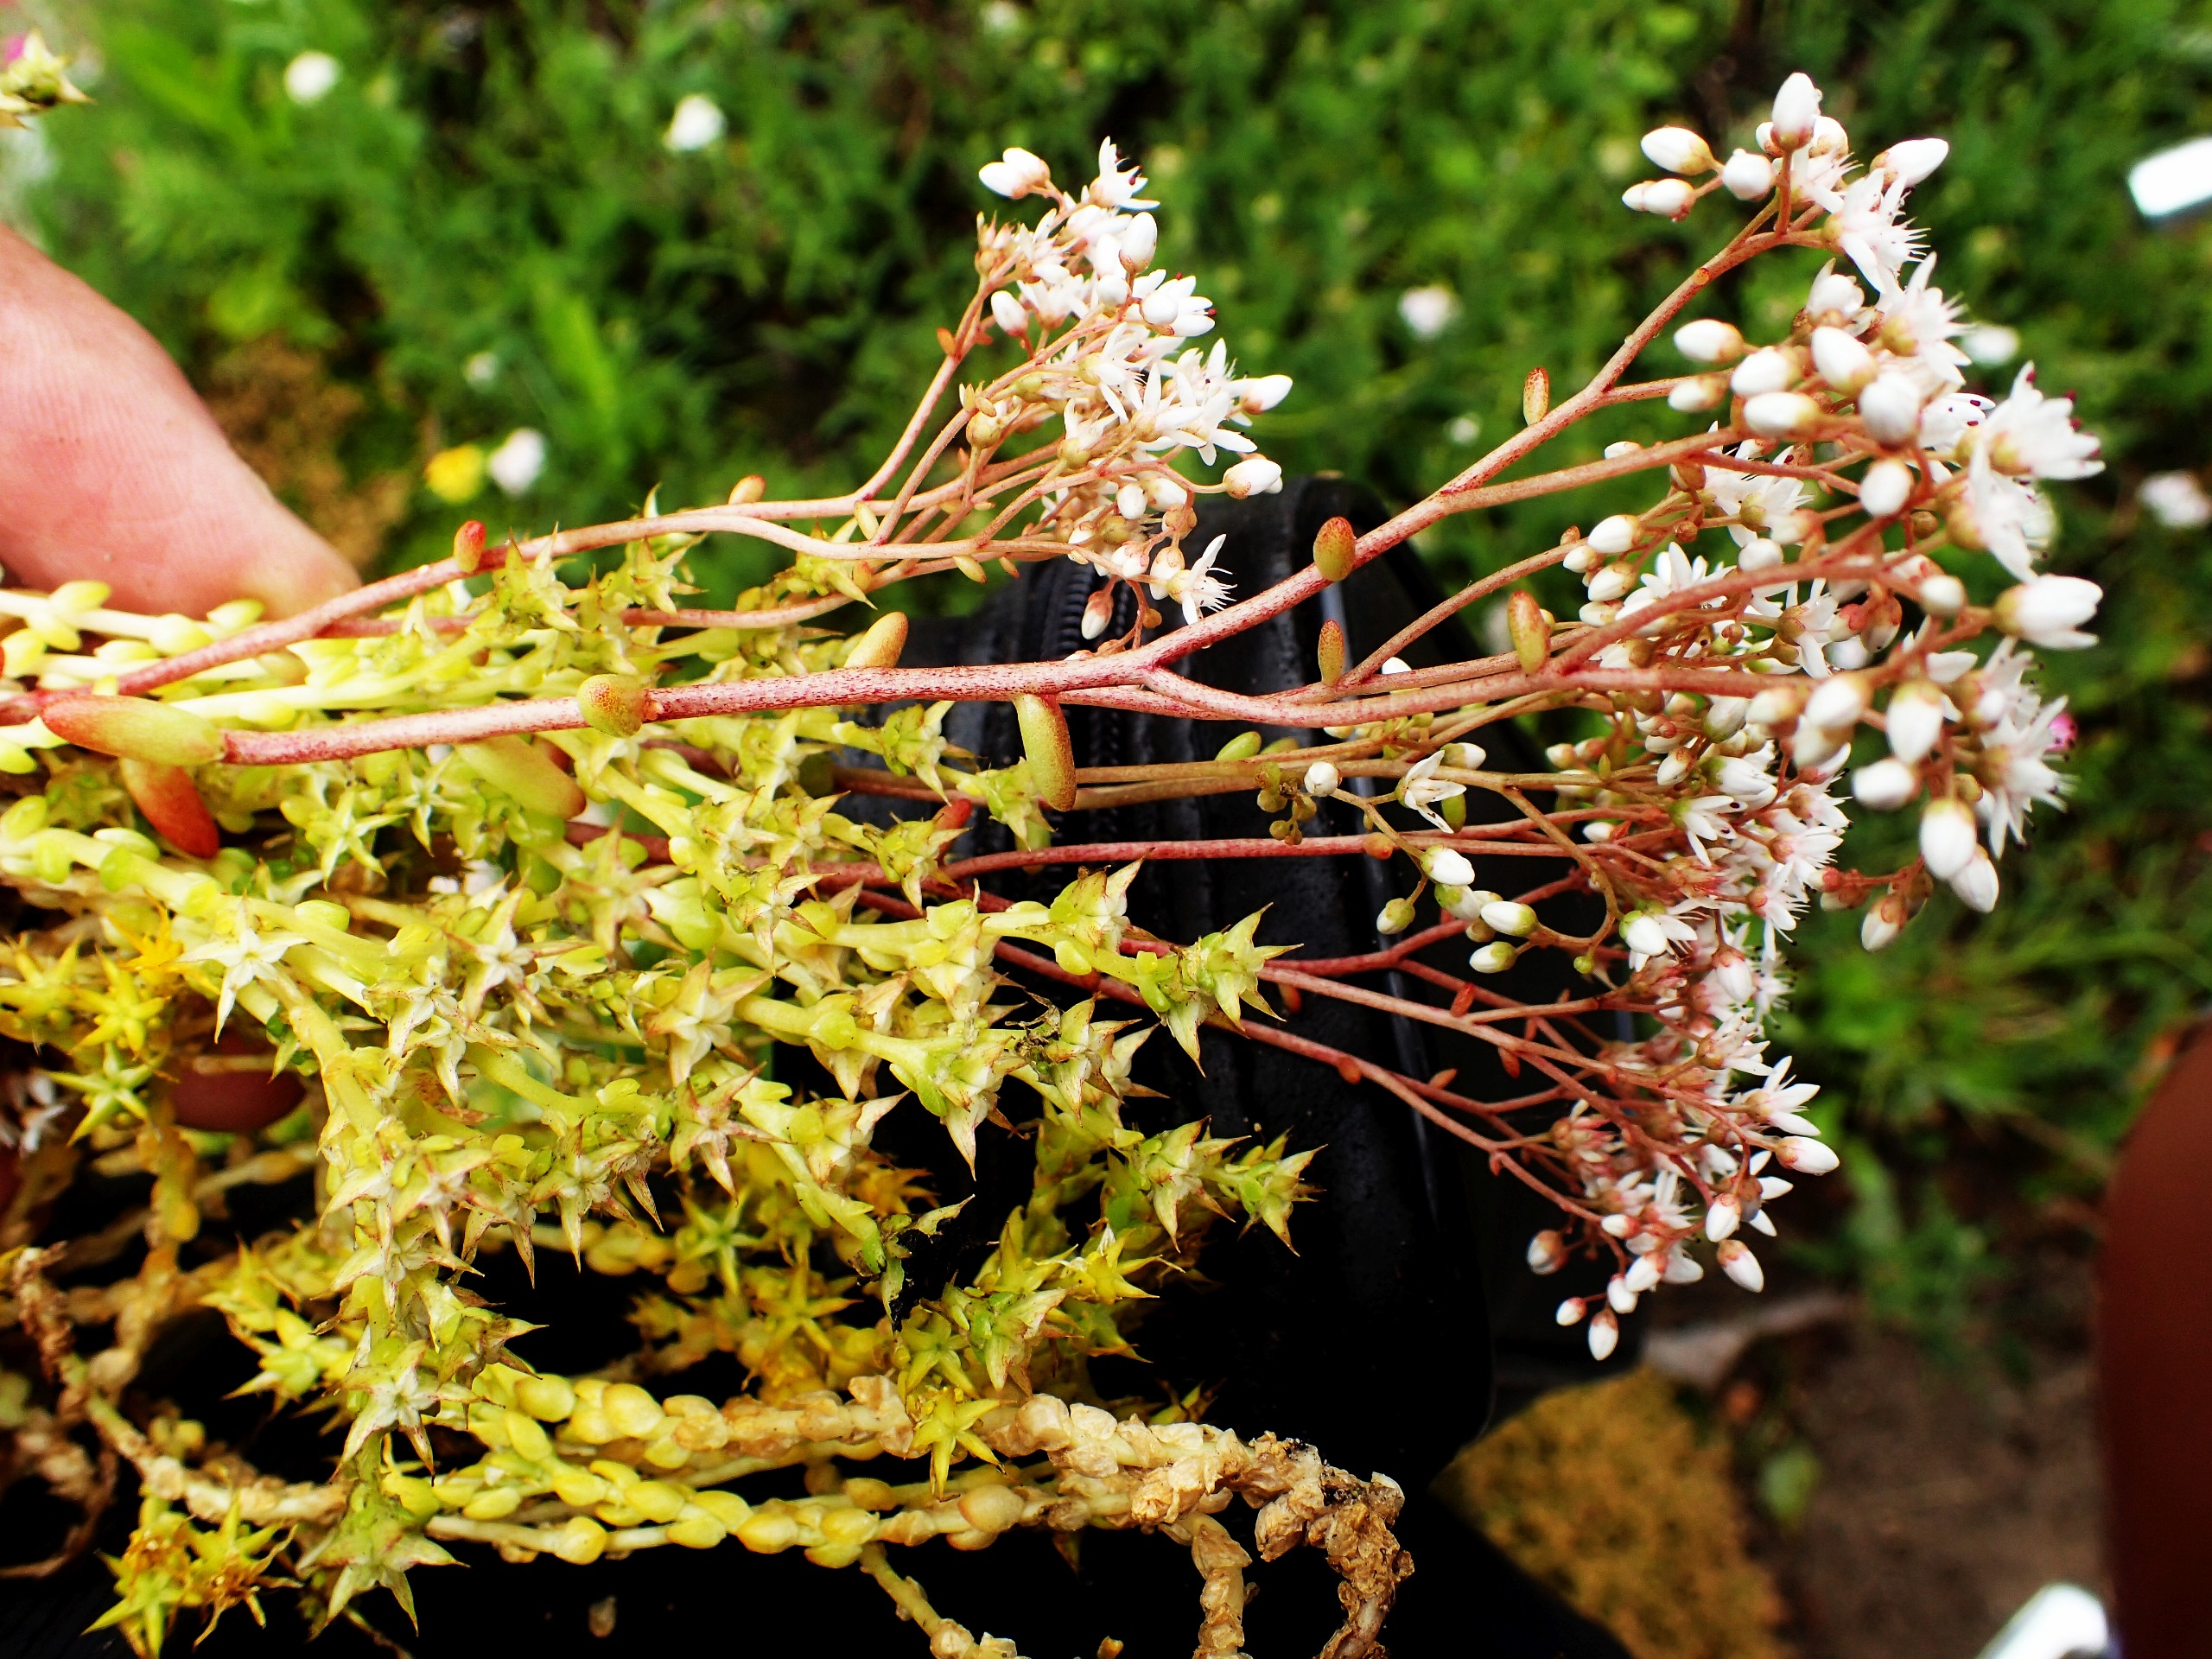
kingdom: Plantae
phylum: Tracheophyta
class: Magnoliopsida
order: Saxifragales
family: Crassulaceae
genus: Sedum
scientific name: Sedum album
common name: Hvid stenurt
